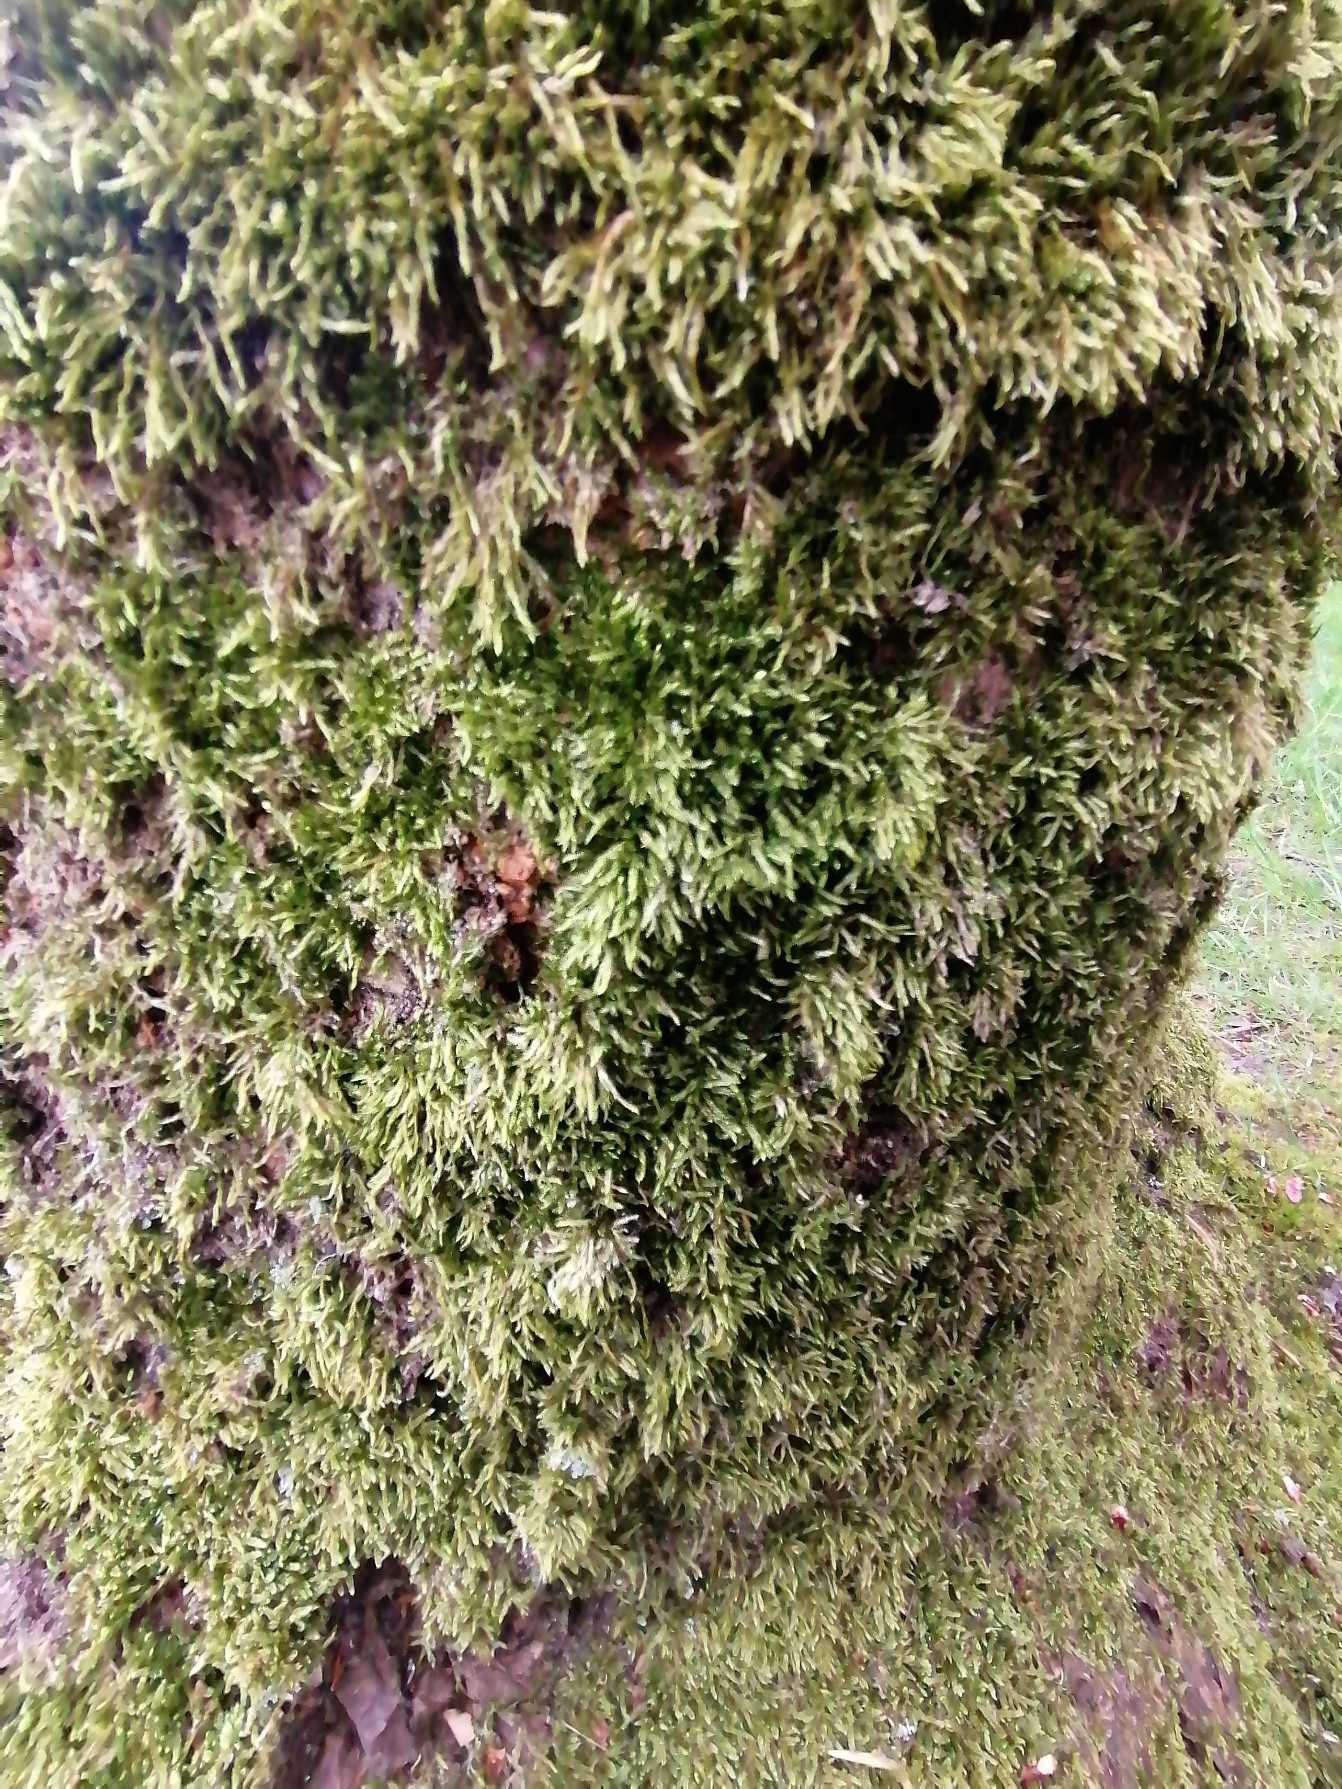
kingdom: Plantae
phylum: Bryophyta
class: Bryopsida
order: Hypnales
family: Hypnaceae
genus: Hypnum
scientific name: Hypnum cupressiforme
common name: Almindelig cypresmos
